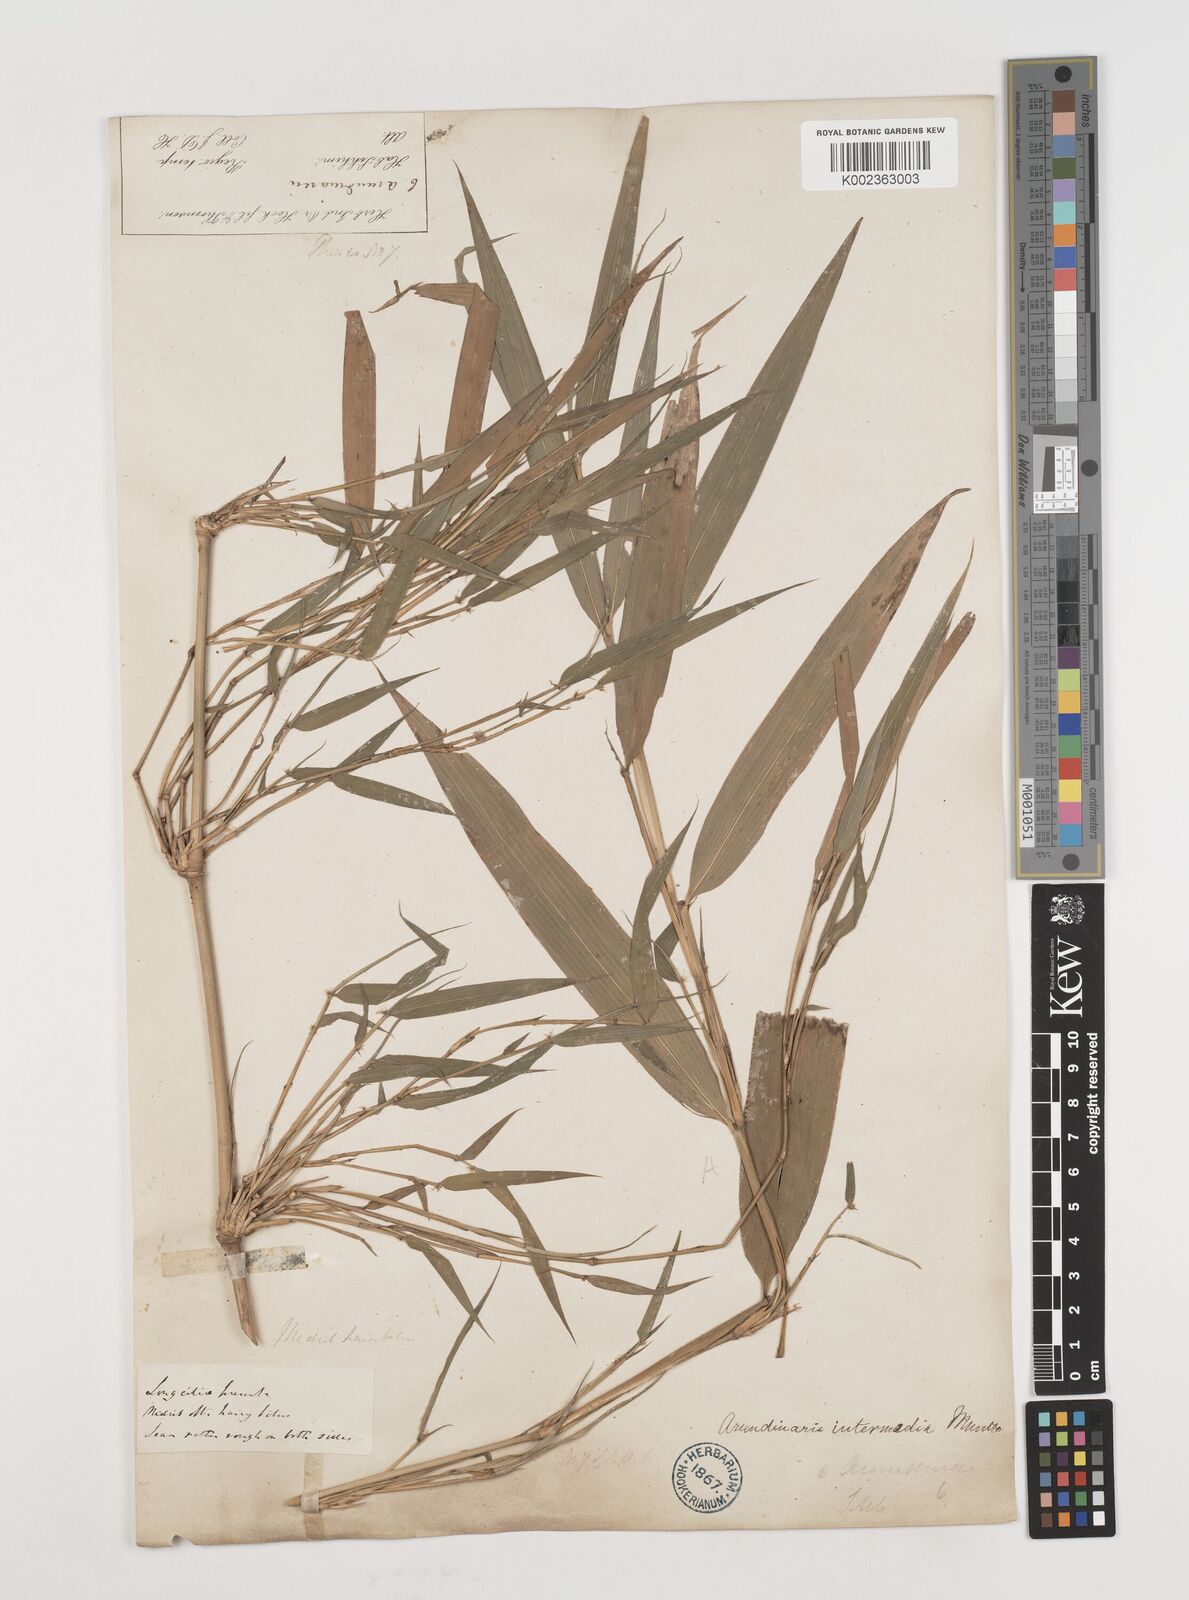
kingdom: Plantae
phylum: Tracheophyta
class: Liliopsida
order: Poales
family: Poaceae
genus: Drepanostachyum
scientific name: Drepanostachyum intermedium
